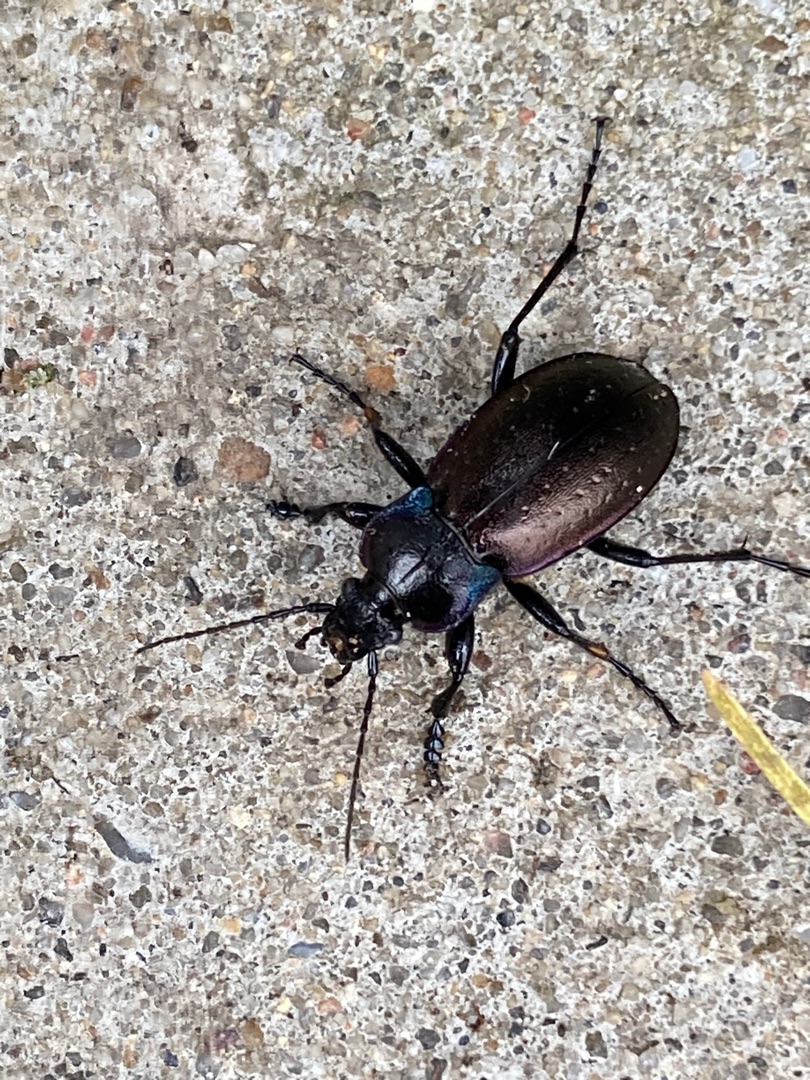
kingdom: Animalia
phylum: Arthropoda
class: Insecta
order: Coleoptera
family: Carabidae
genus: Carabus
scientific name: Carabus nemoralis
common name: Kratløber
